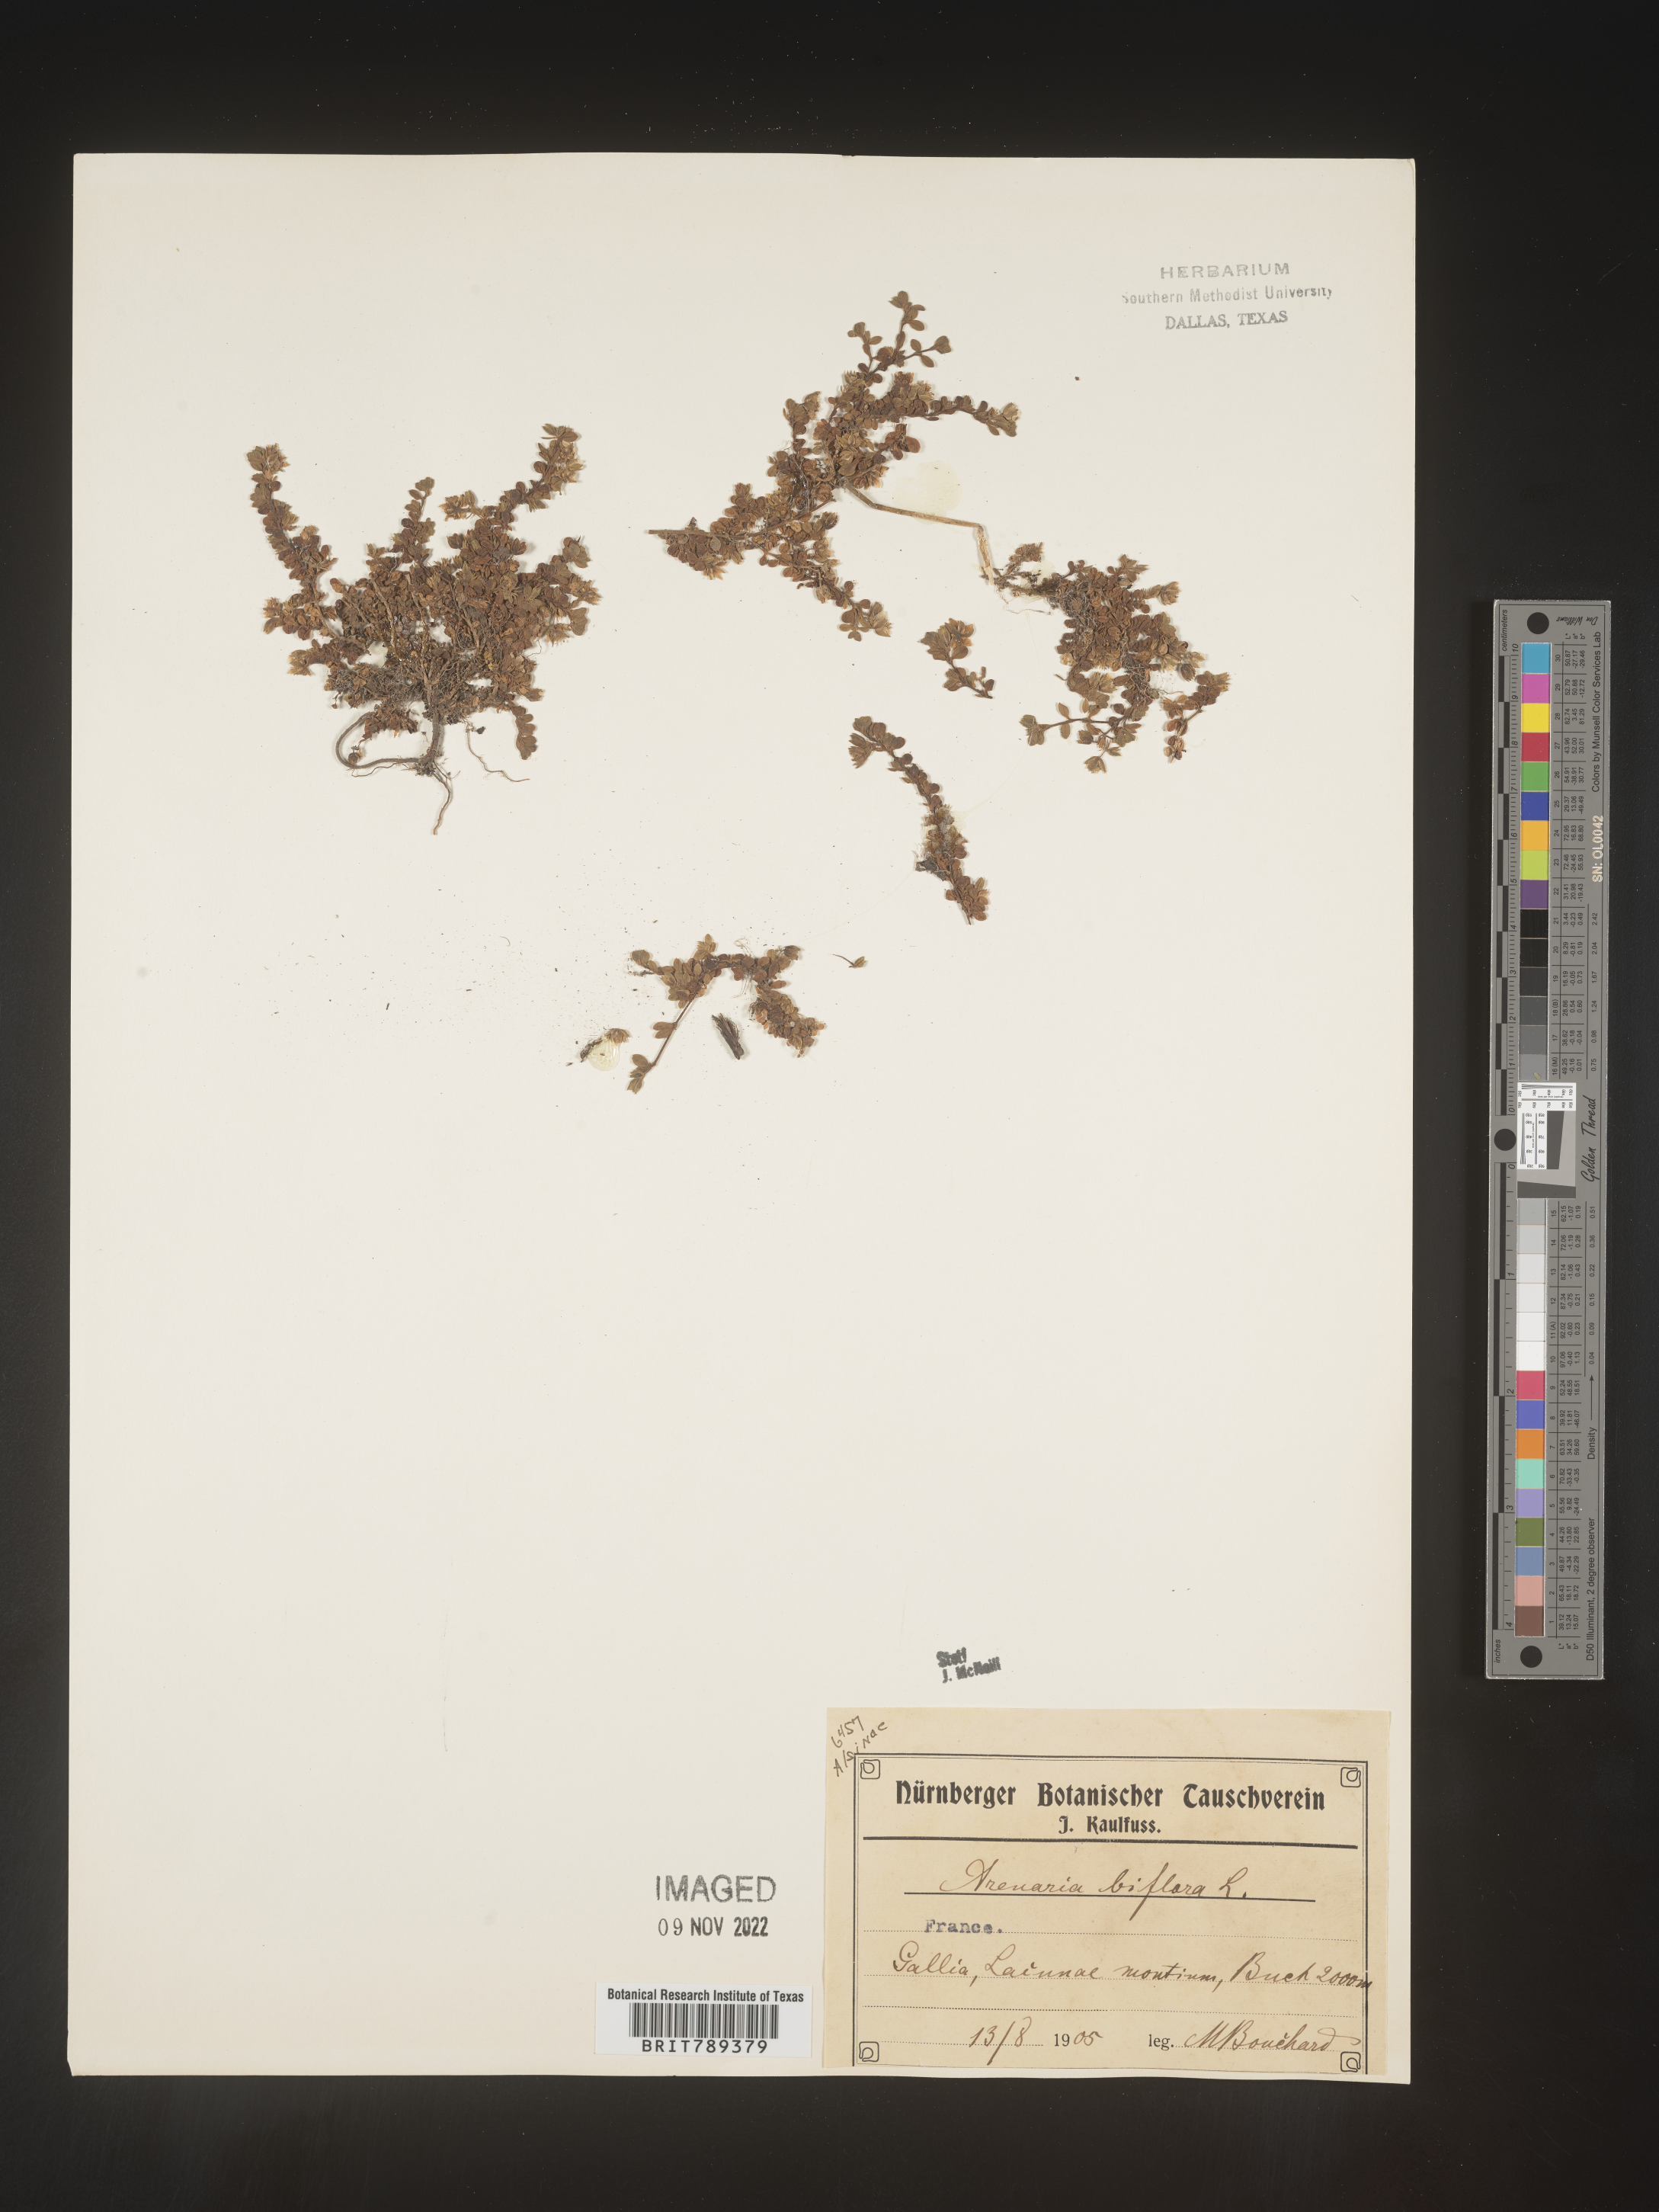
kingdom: Plantae
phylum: Tracheophyta
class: Magnoliopsida
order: Caryophyllales
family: Caryophyllaceae
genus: Arenaria
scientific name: Arenaria
